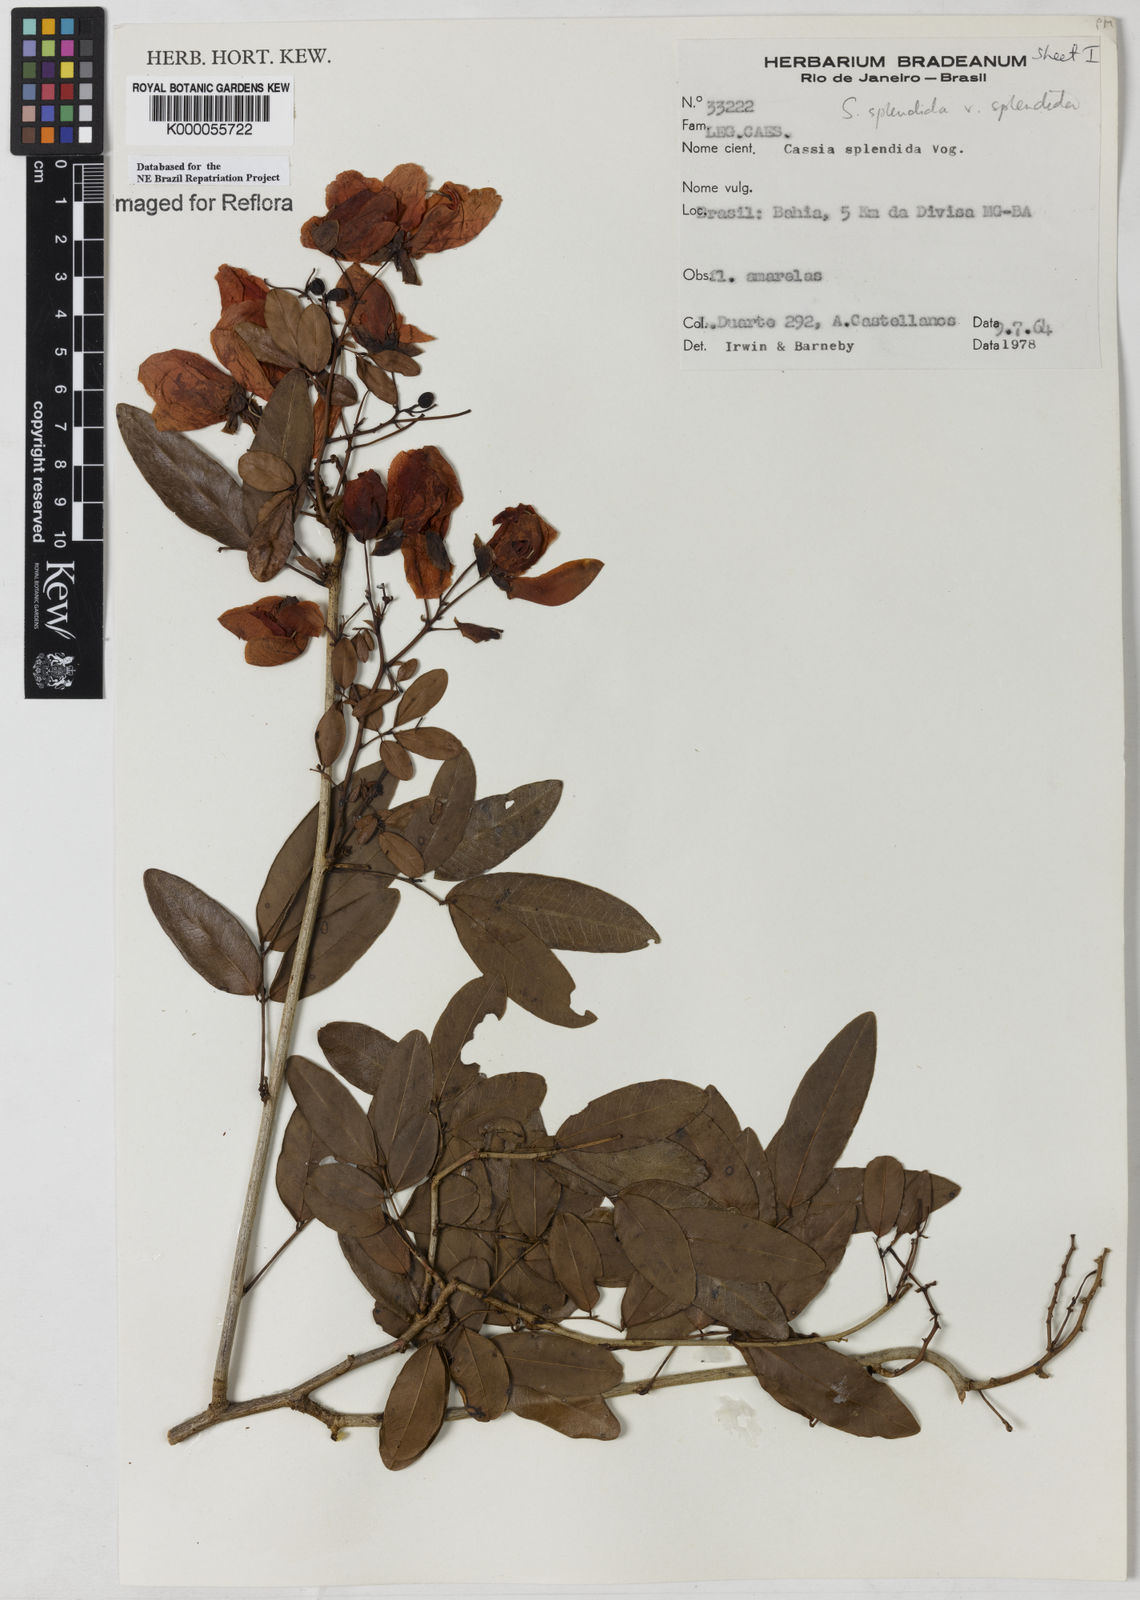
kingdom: Plantae
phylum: Tracheophyta
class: Magnoliopsida
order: Fabales
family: Fabaceae
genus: Senna
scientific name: Senna splendida
